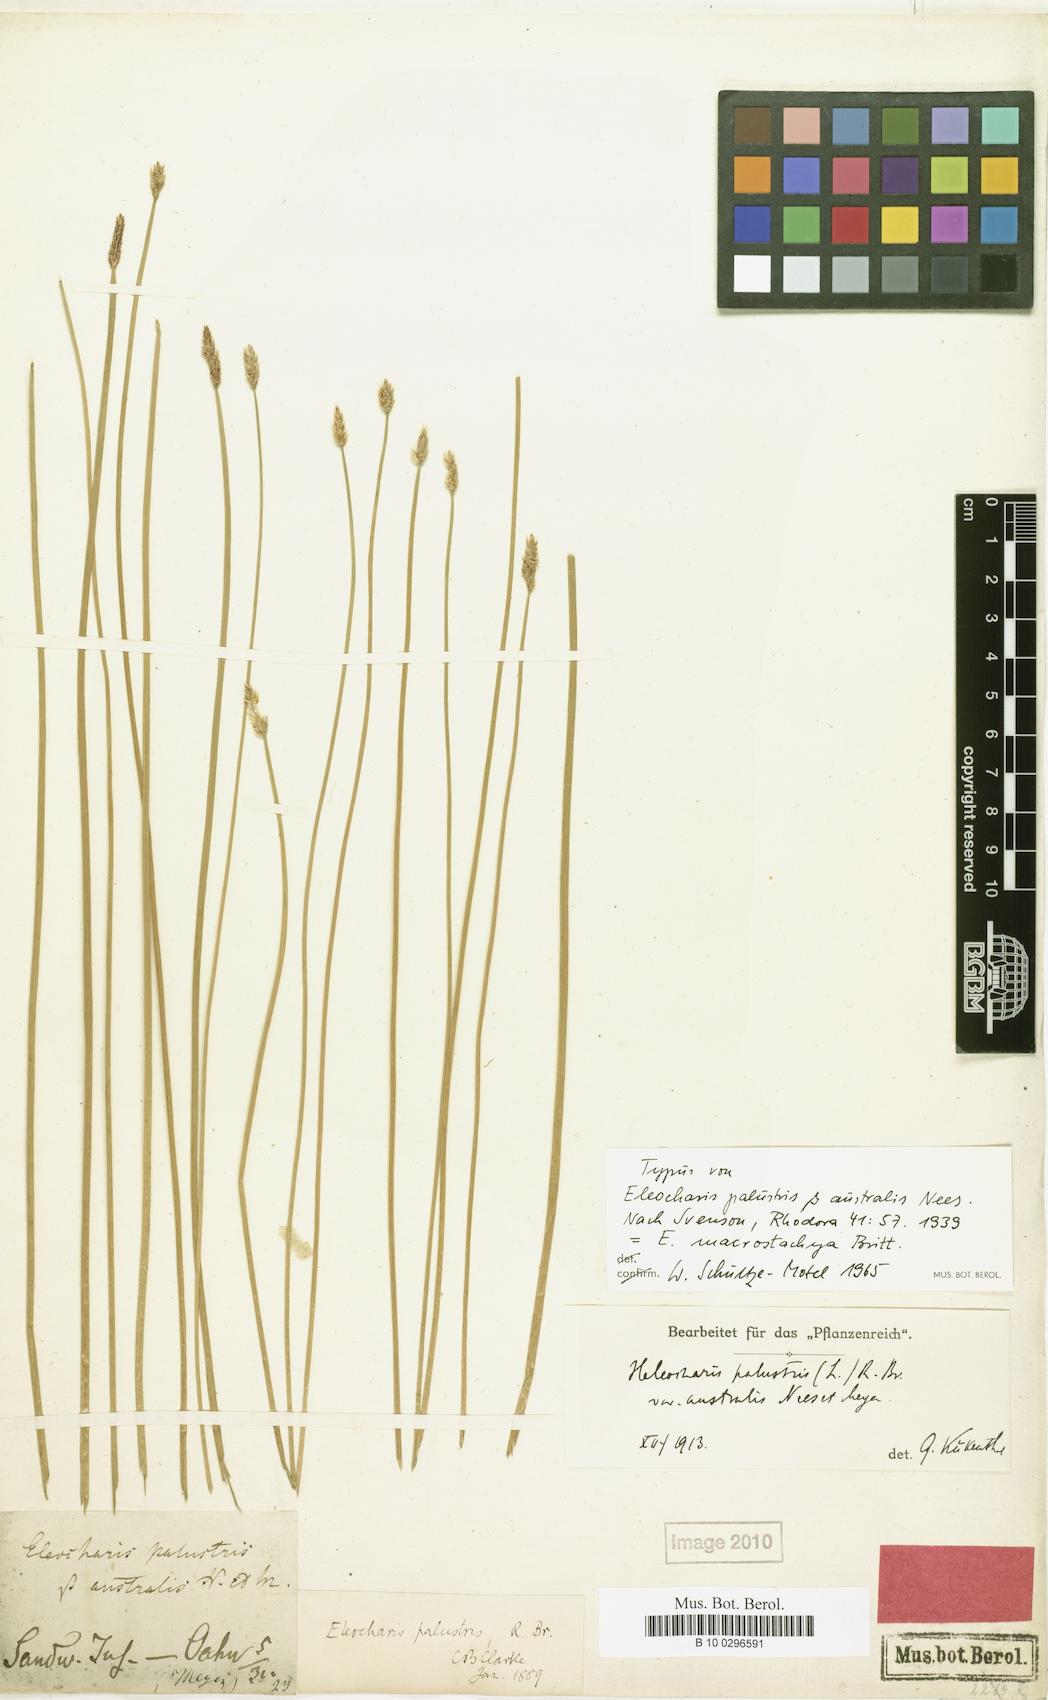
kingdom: Plantae
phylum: Tracheophyta
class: Liliopsida
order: Poales
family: Cyperaceae
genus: Eleocharis
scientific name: Eleocharis macrostachya
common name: Pale spikerush
